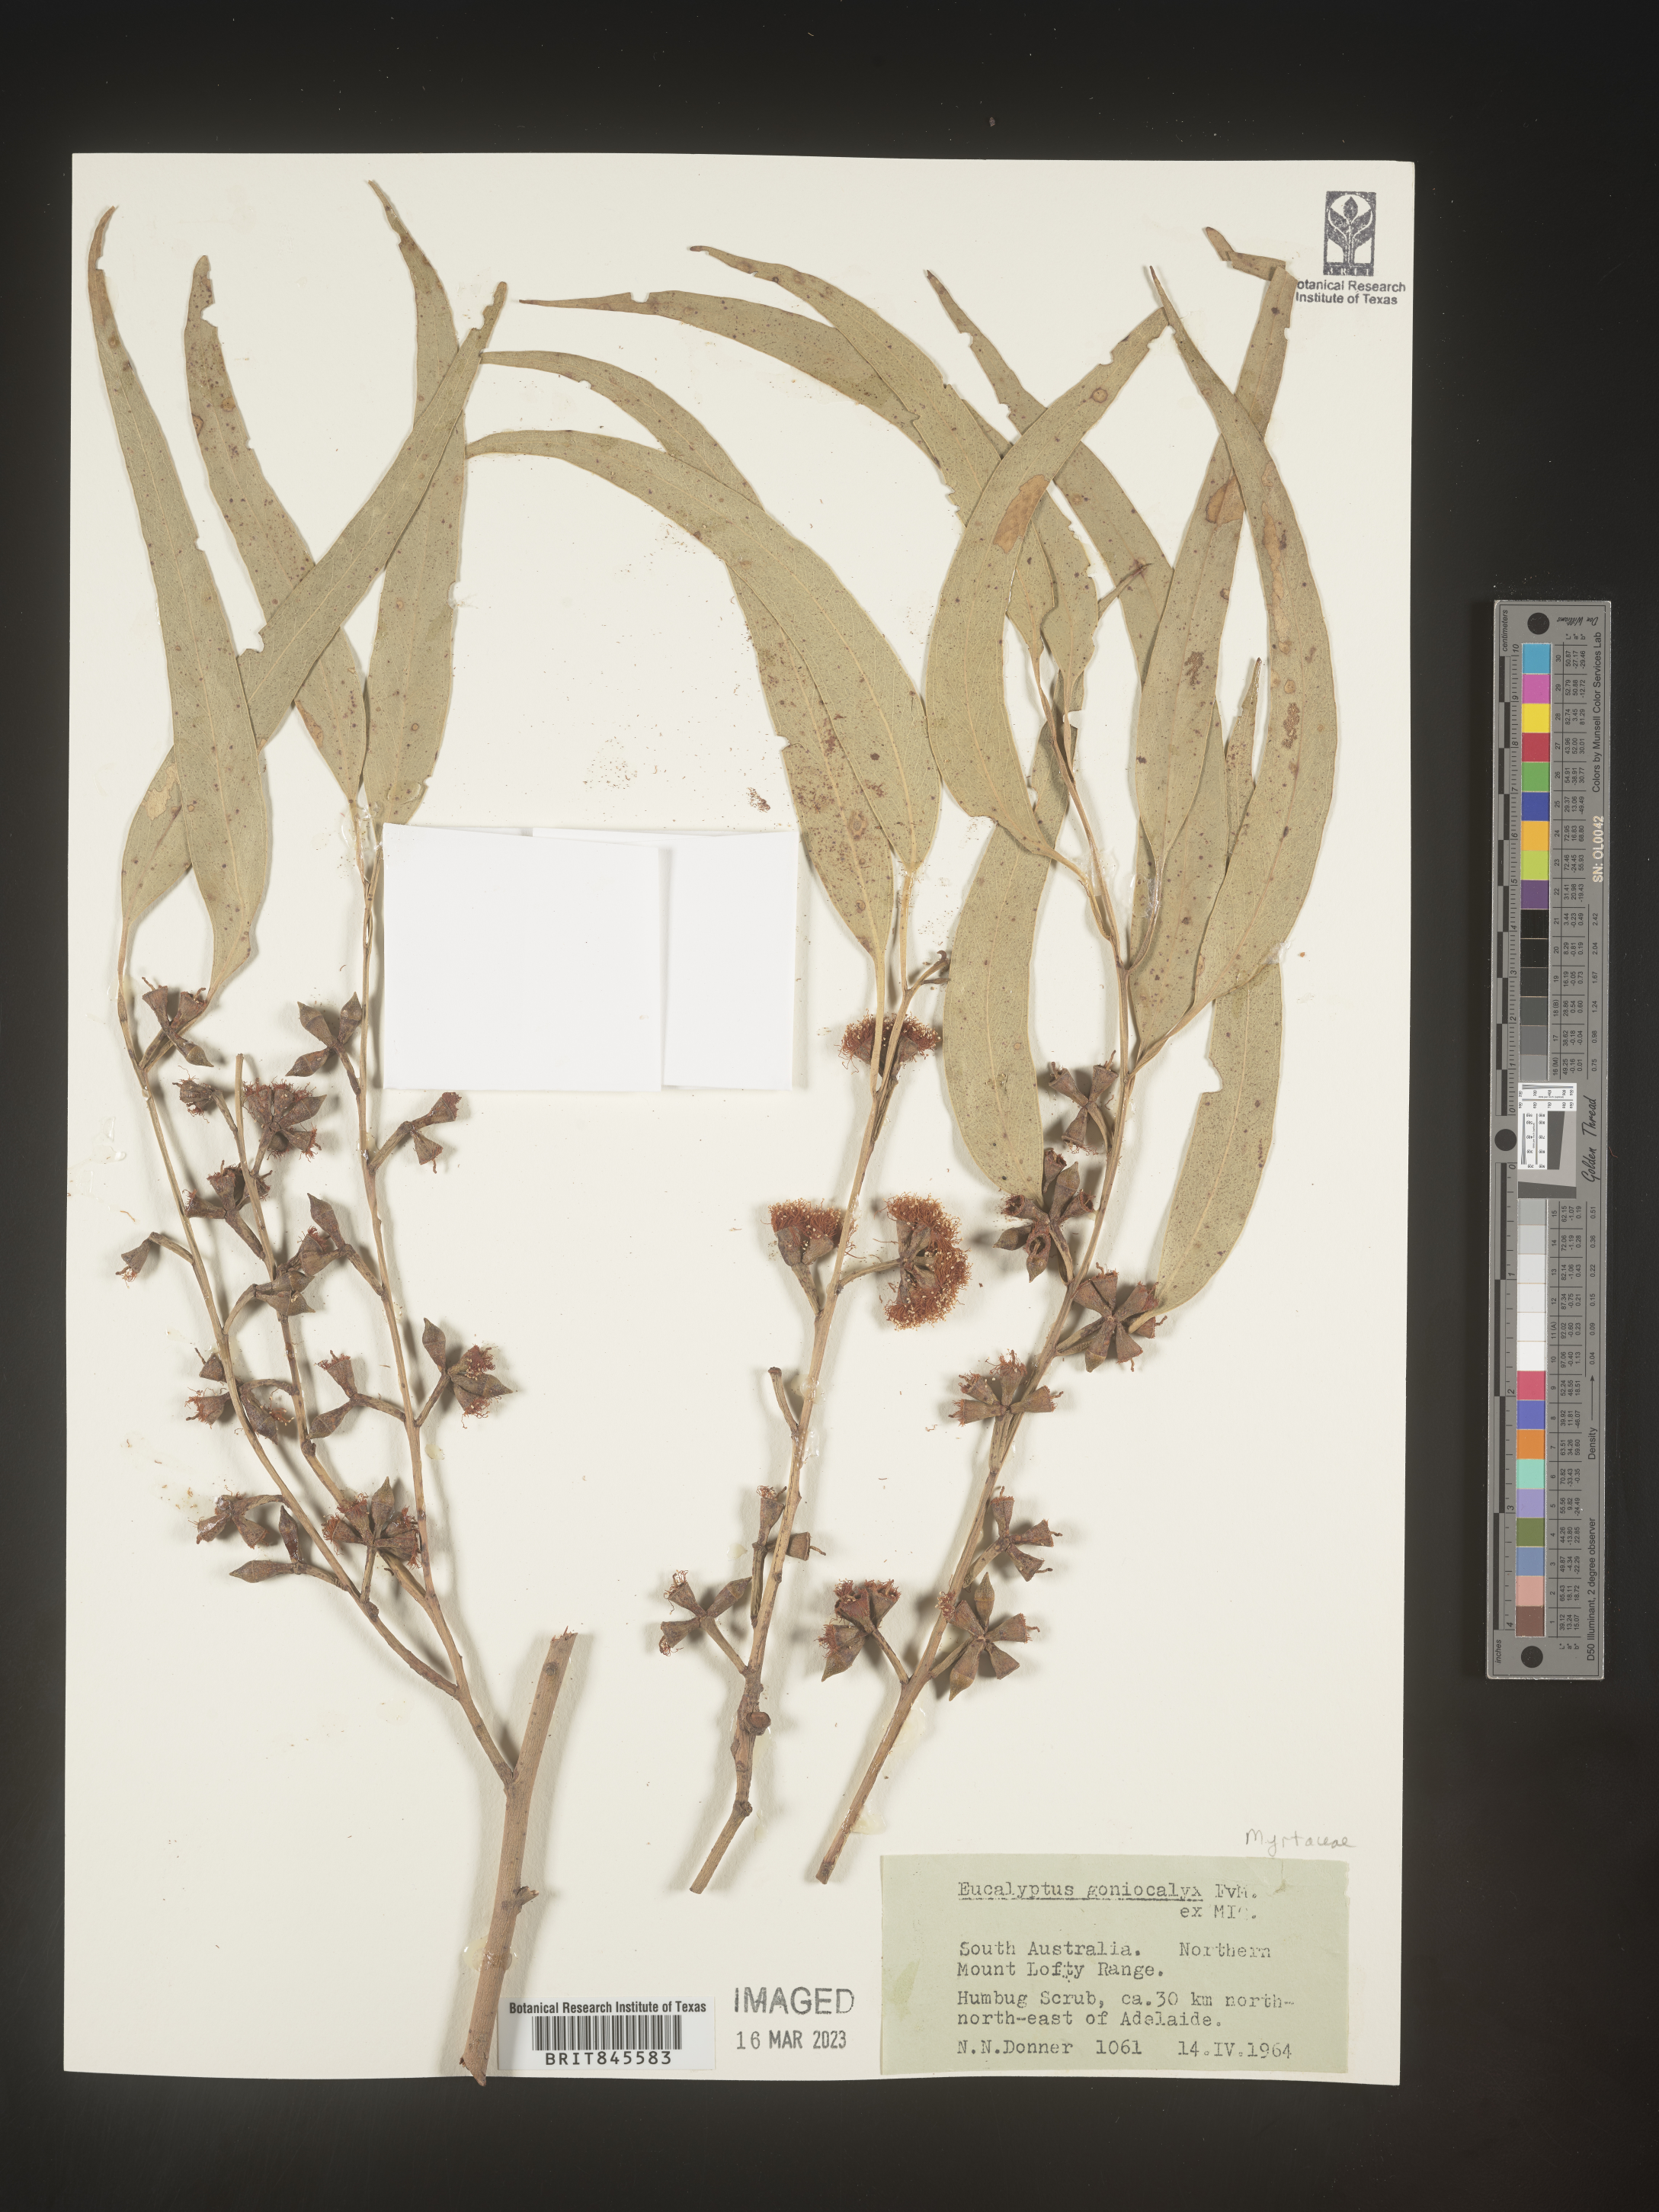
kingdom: Plantae
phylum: Tracheophyta
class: Magnoliopsida
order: Myrtales
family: Myrtaceae
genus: Eucalyptus
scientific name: Eucalyptus
